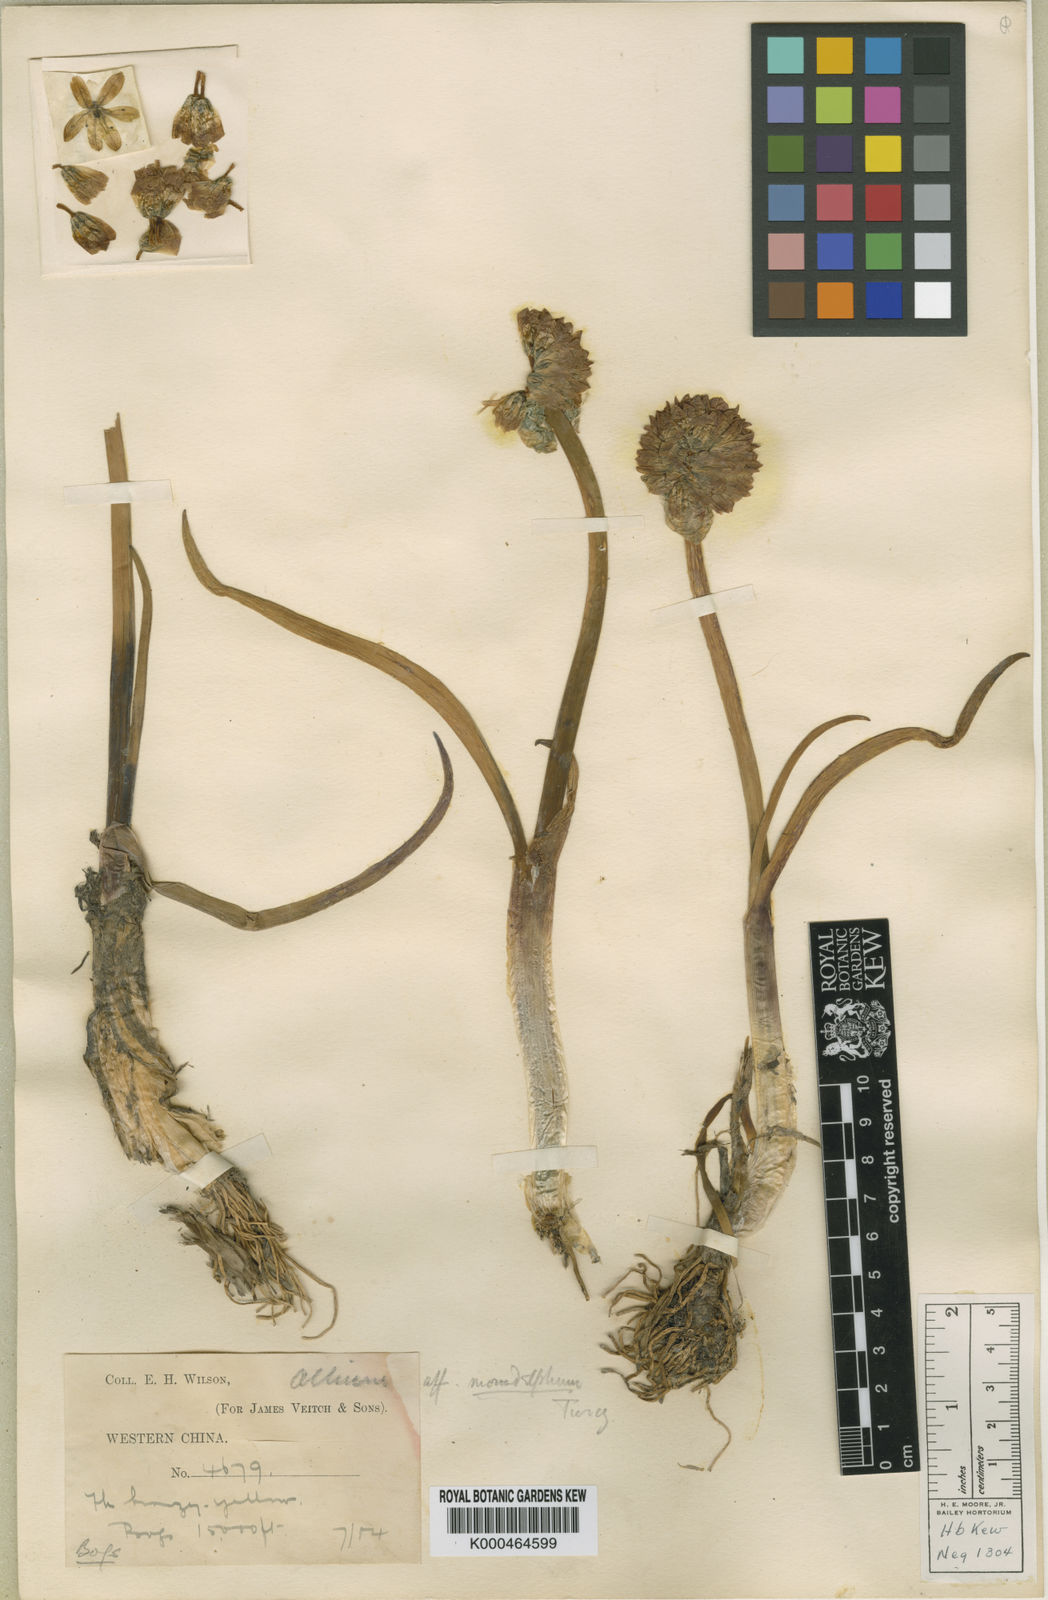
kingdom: Plantae
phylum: Tracheophyta
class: Liliopsida
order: Asparagales
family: Amaryllidaceae
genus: Allium
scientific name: Allium atrosanguineum
